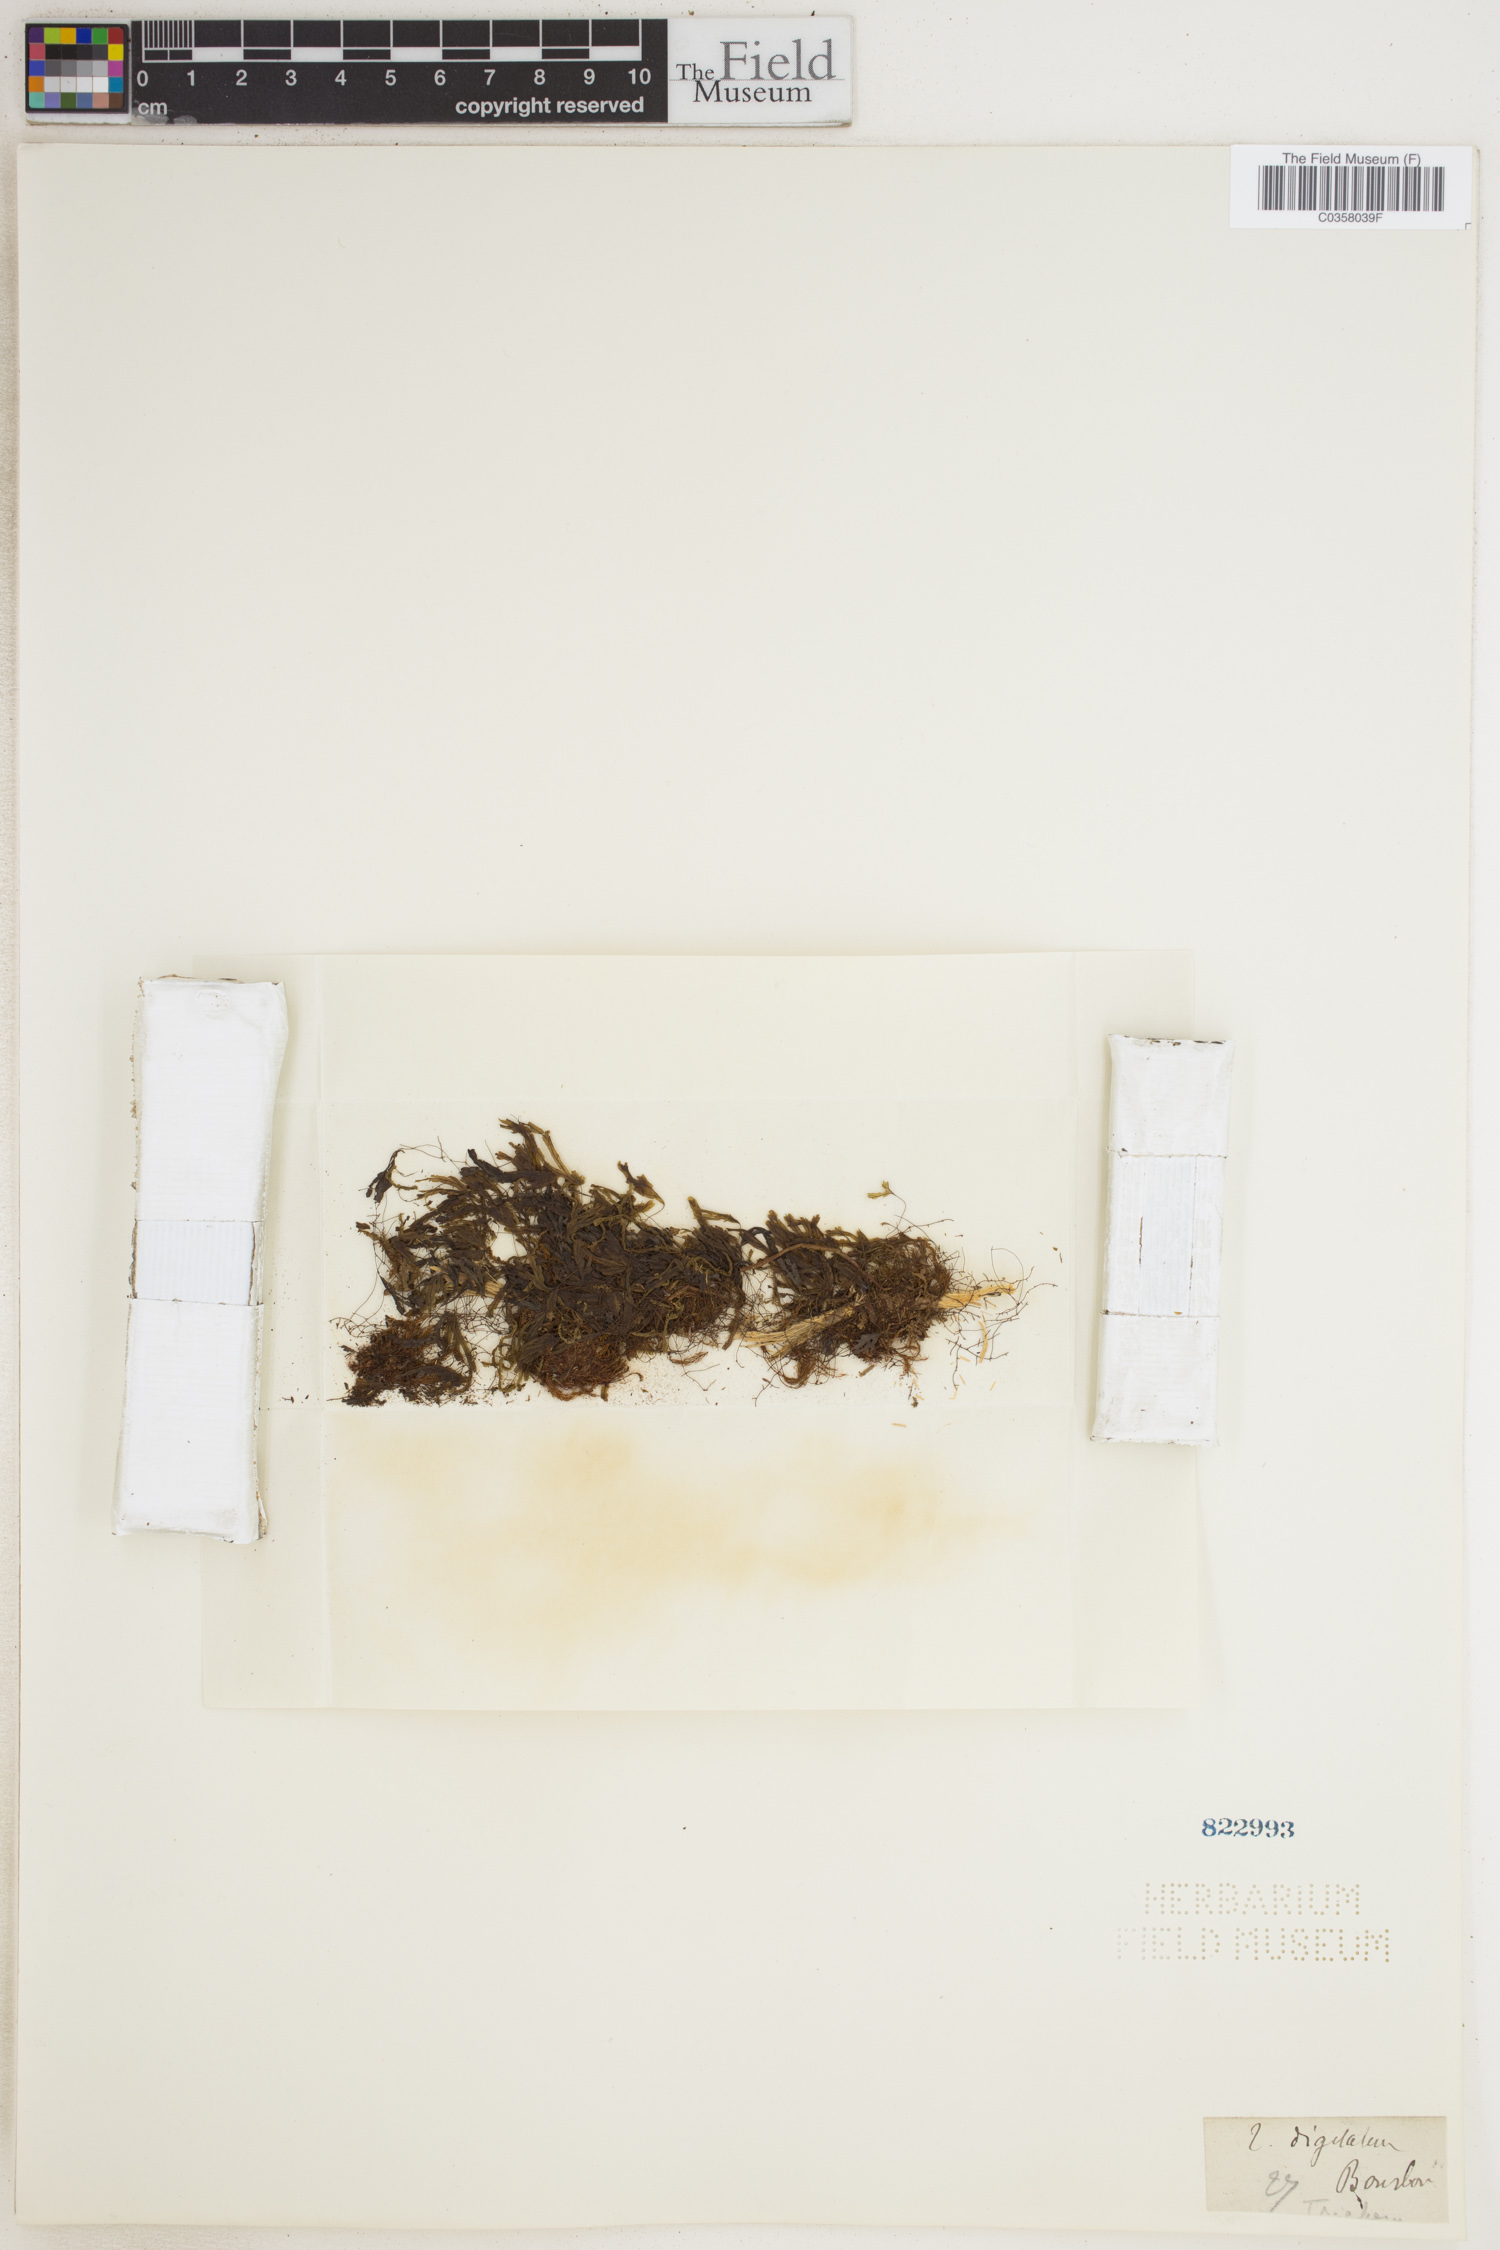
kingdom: Plantae
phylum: Tracheophyta
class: Polypodiopsida
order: Hymenophyllales
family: Hymenophyllaceae
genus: Hymenophyllum
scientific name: Hymenophyllum digitatum
